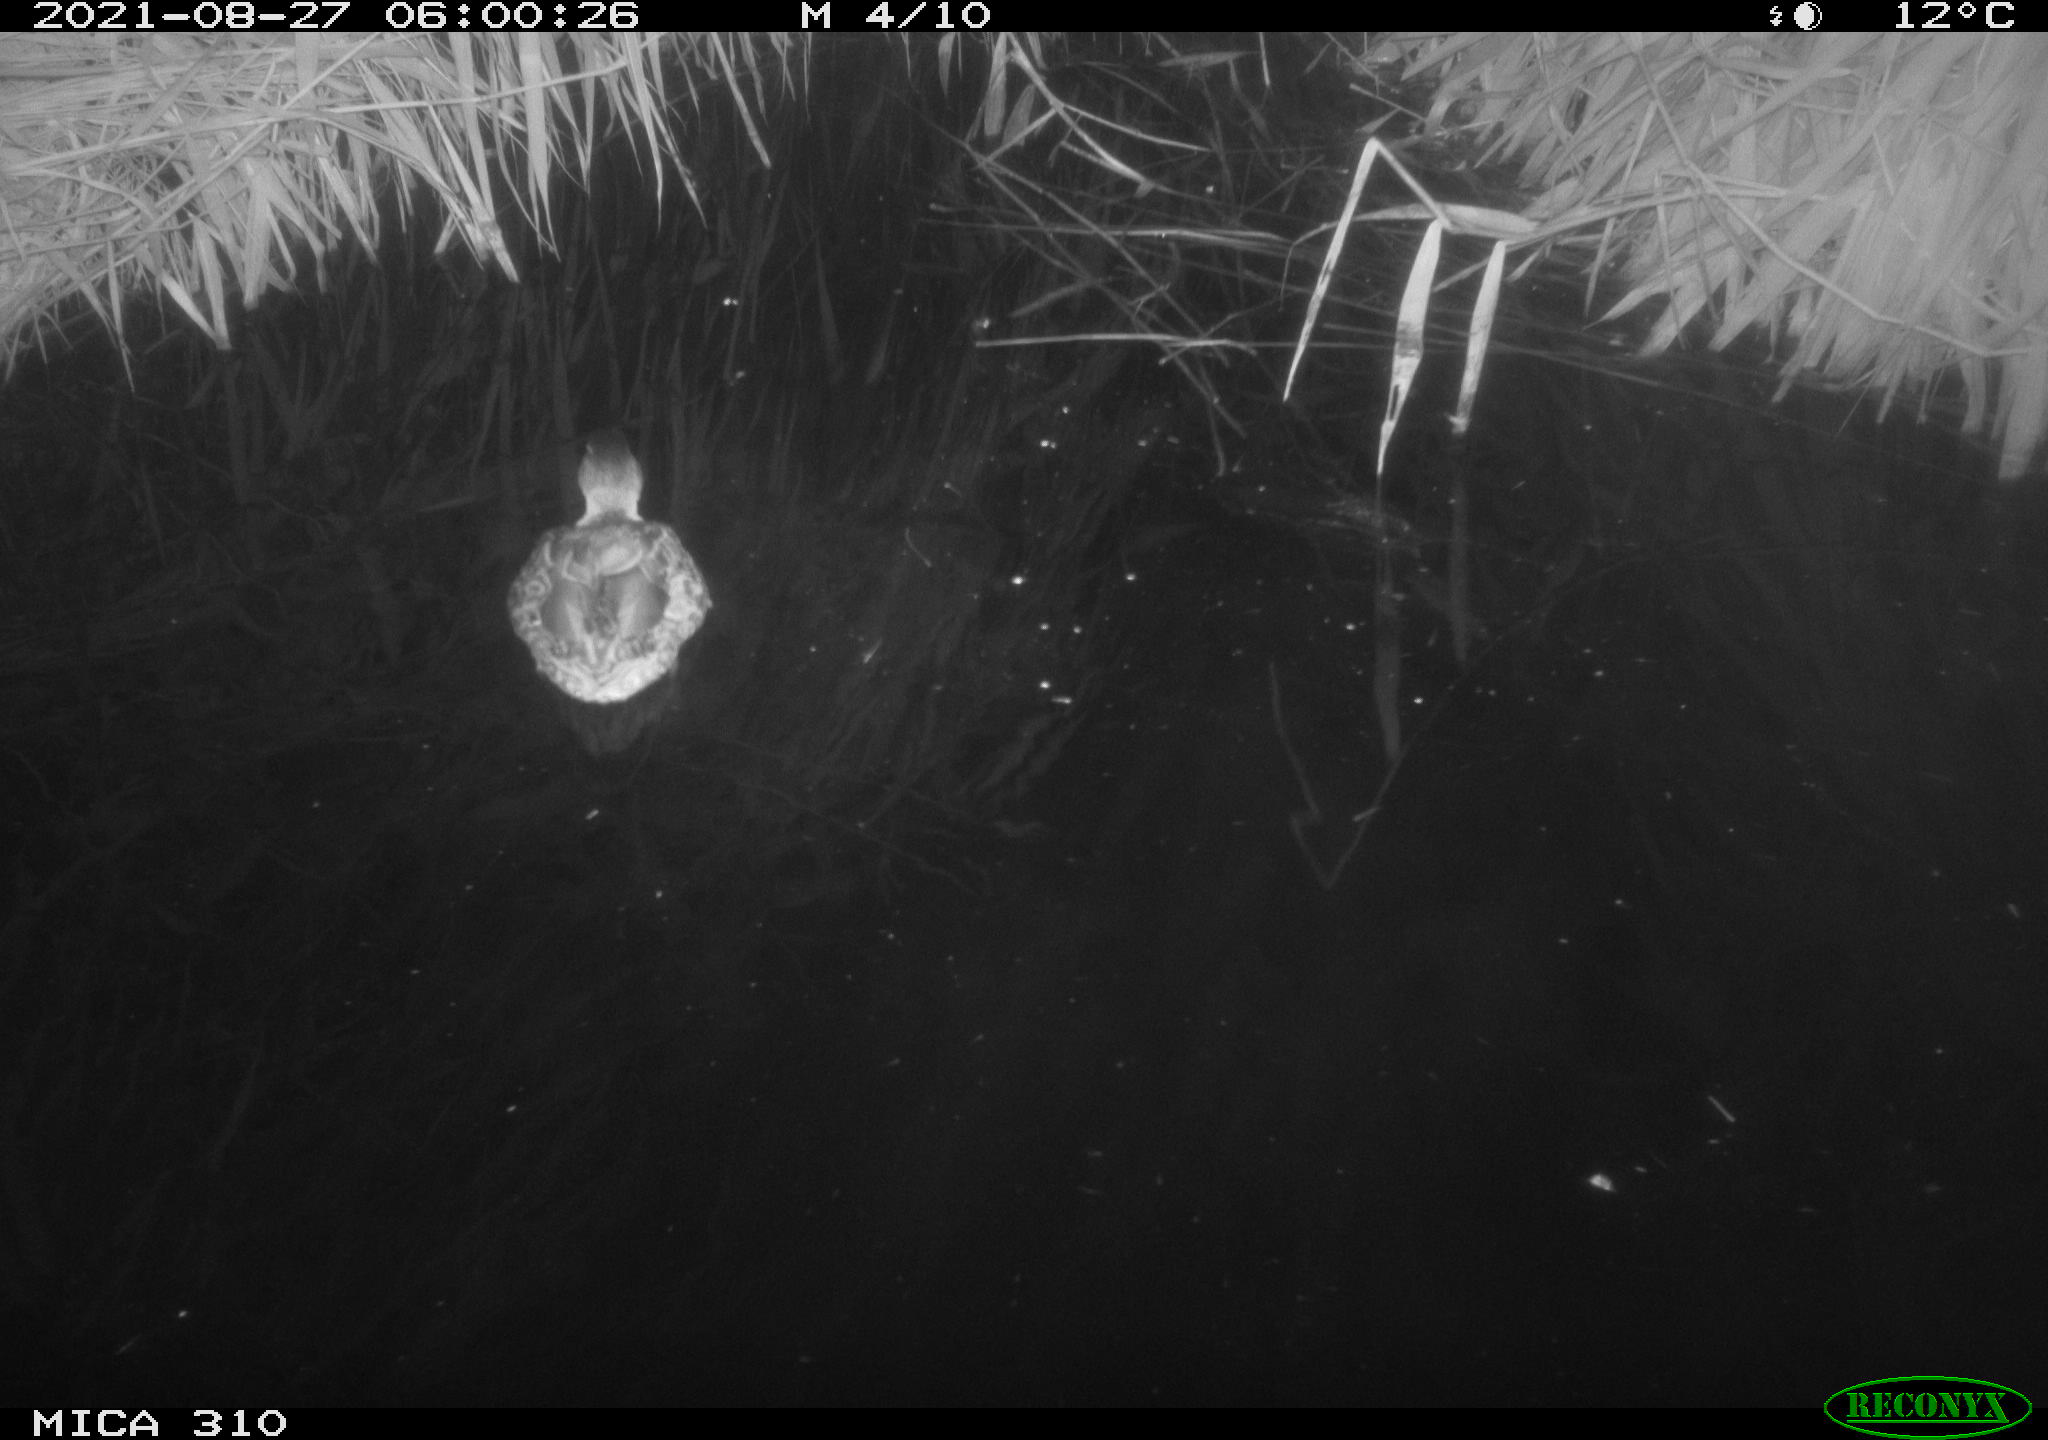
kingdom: Animalia
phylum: Chordata
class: Aves
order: Anseriformes
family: Anatidae
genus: Anas
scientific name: Anas platyrhynchos
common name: Mallard
